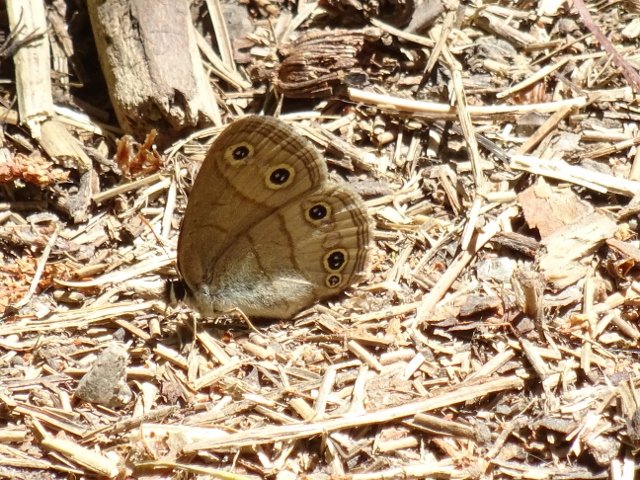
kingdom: Animalia
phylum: Arthropoda
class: Insecta
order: Lepidoptera
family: Nymphalidae
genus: Euptychia
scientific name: Euptychia cymela
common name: Little Wood Satyr
